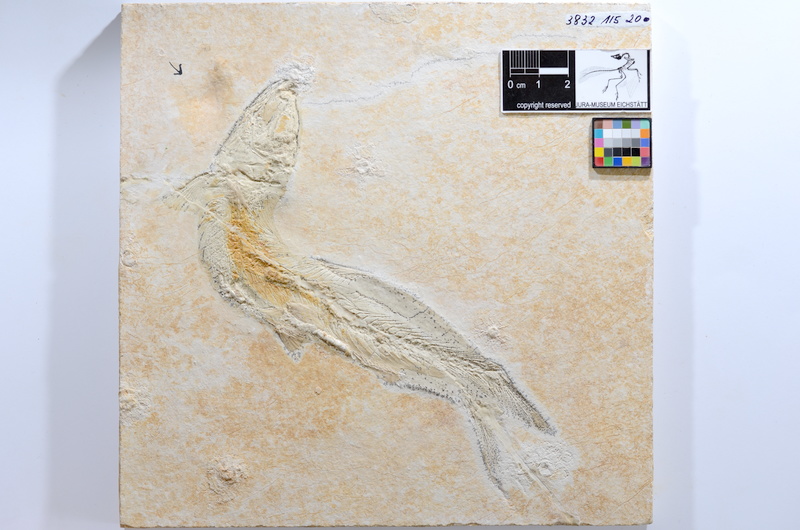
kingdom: Animalia
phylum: Chordata
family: Ascalaboidae
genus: Tharsis
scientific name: Tharsis dubius
